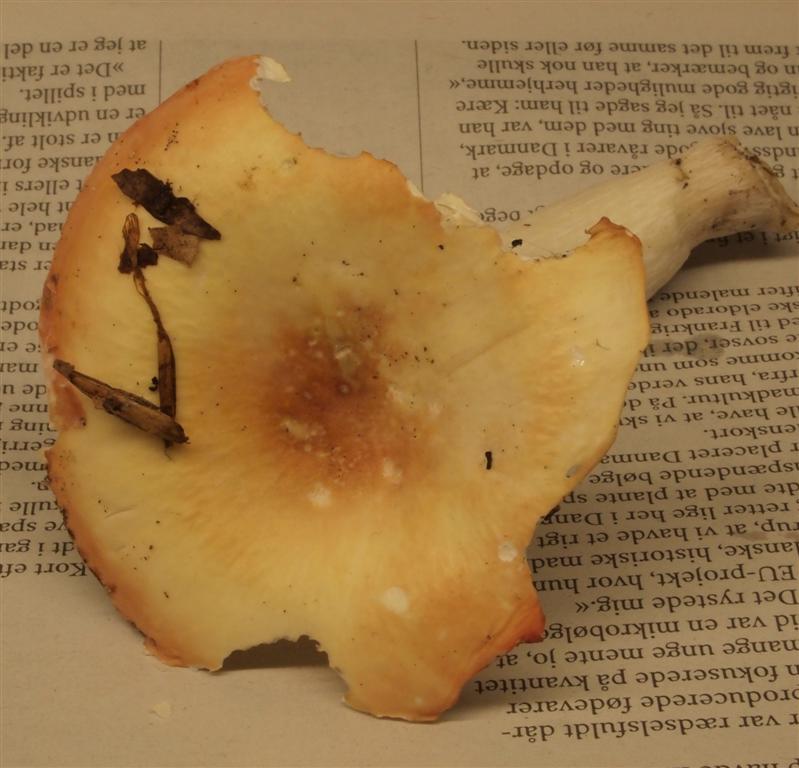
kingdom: Fungi
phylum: Basidiomycota
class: Agaricomycetes
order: Russulales
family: Russulaceae
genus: Russula
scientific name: Russula risigallina
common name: abrikos-skørhat
